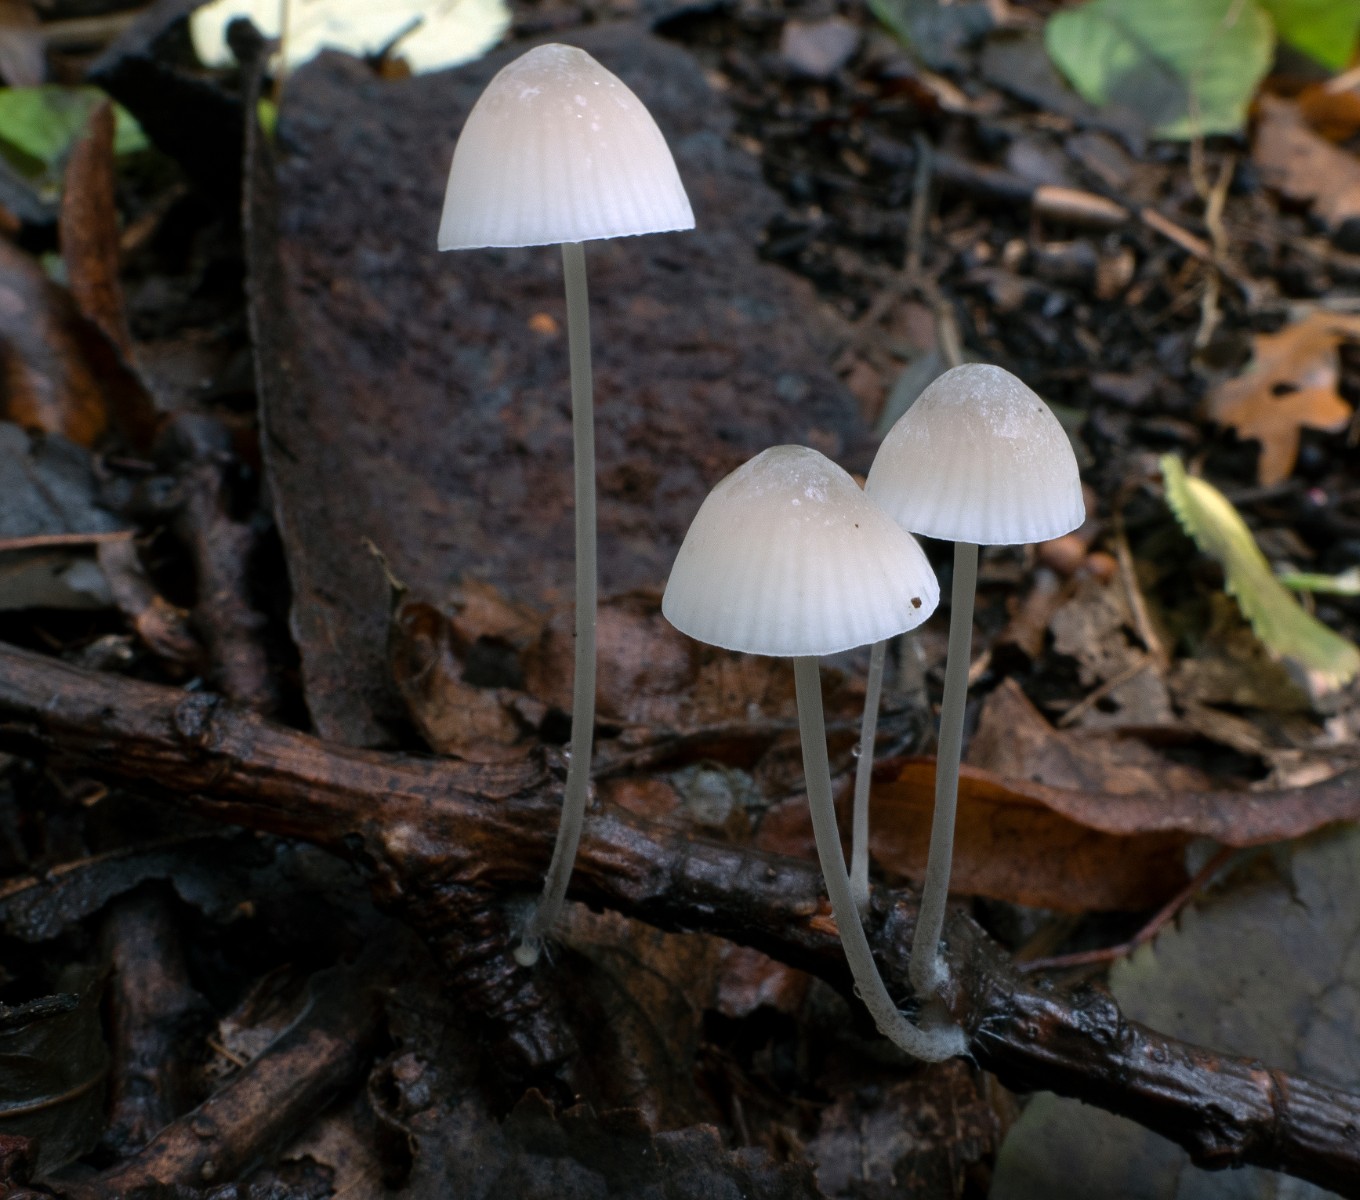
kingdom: Fungi
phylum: Basidiomycota
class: Agaricomycetes
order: Agaricales
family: Mycenaceae
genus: Mycena
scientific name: Mycena arcangeliana
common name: oliven-huesvamp
